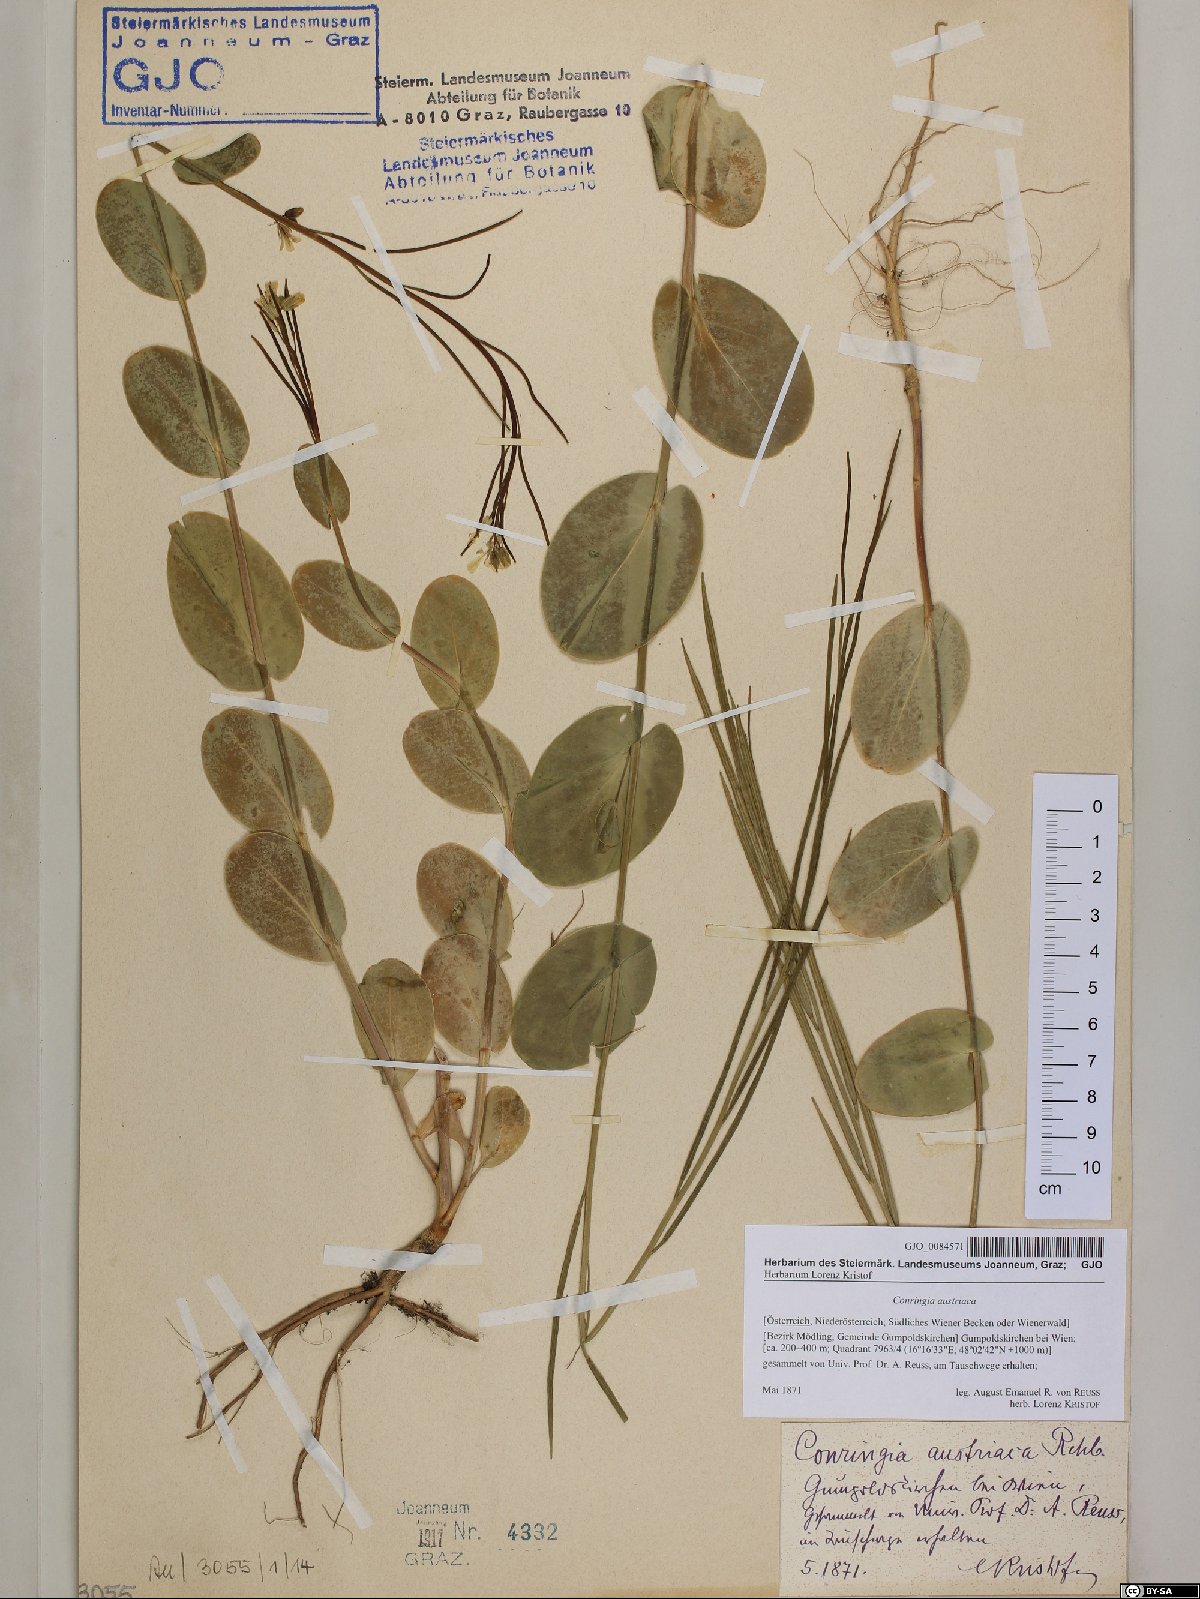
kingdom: Plantae
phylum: Tracheophyta
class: Magnoliopsida
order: Brassicales
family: Brassicaceae
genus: Conringia
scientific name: Conringia austriaca
